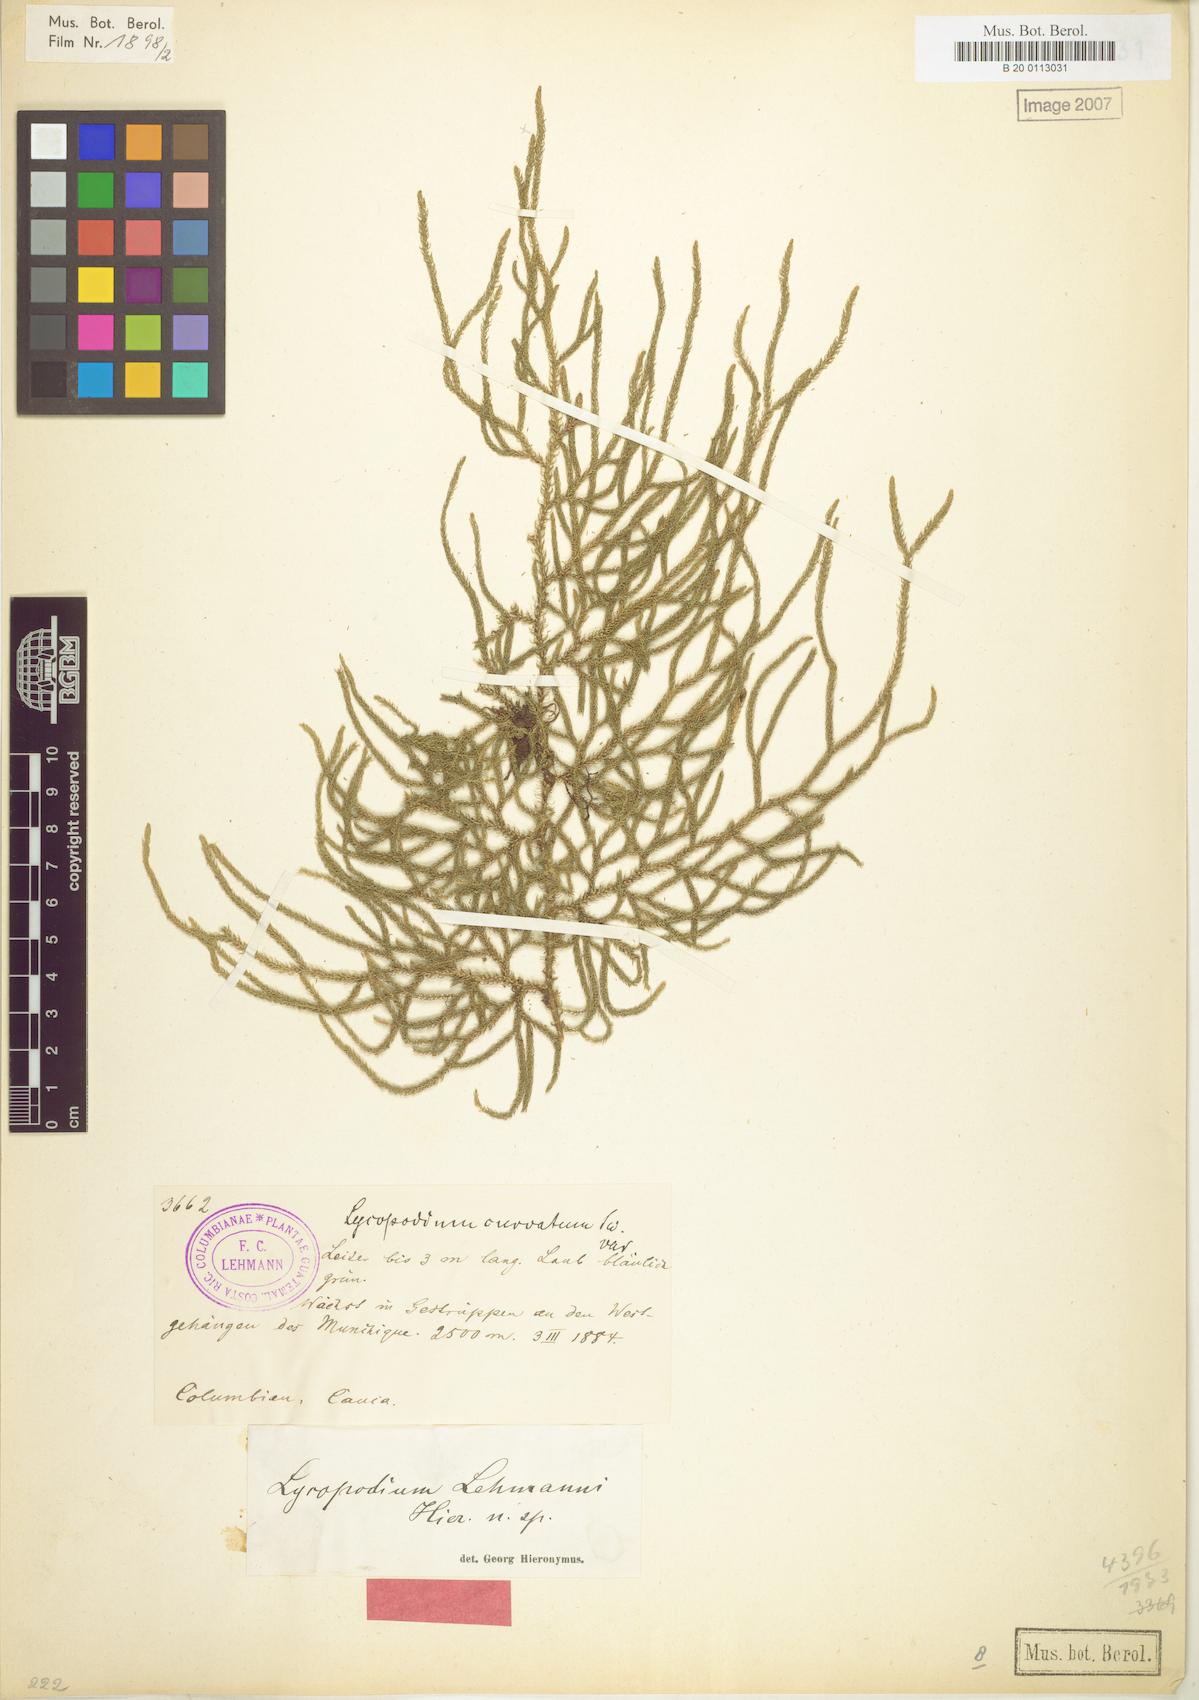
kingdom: Plantae
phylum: Tracheophyta
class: Lycopodiopsida
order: Lycopodiales
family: Lycopodiaceae
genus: Palhinhaea
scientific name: Palhinhaea lehmannii
